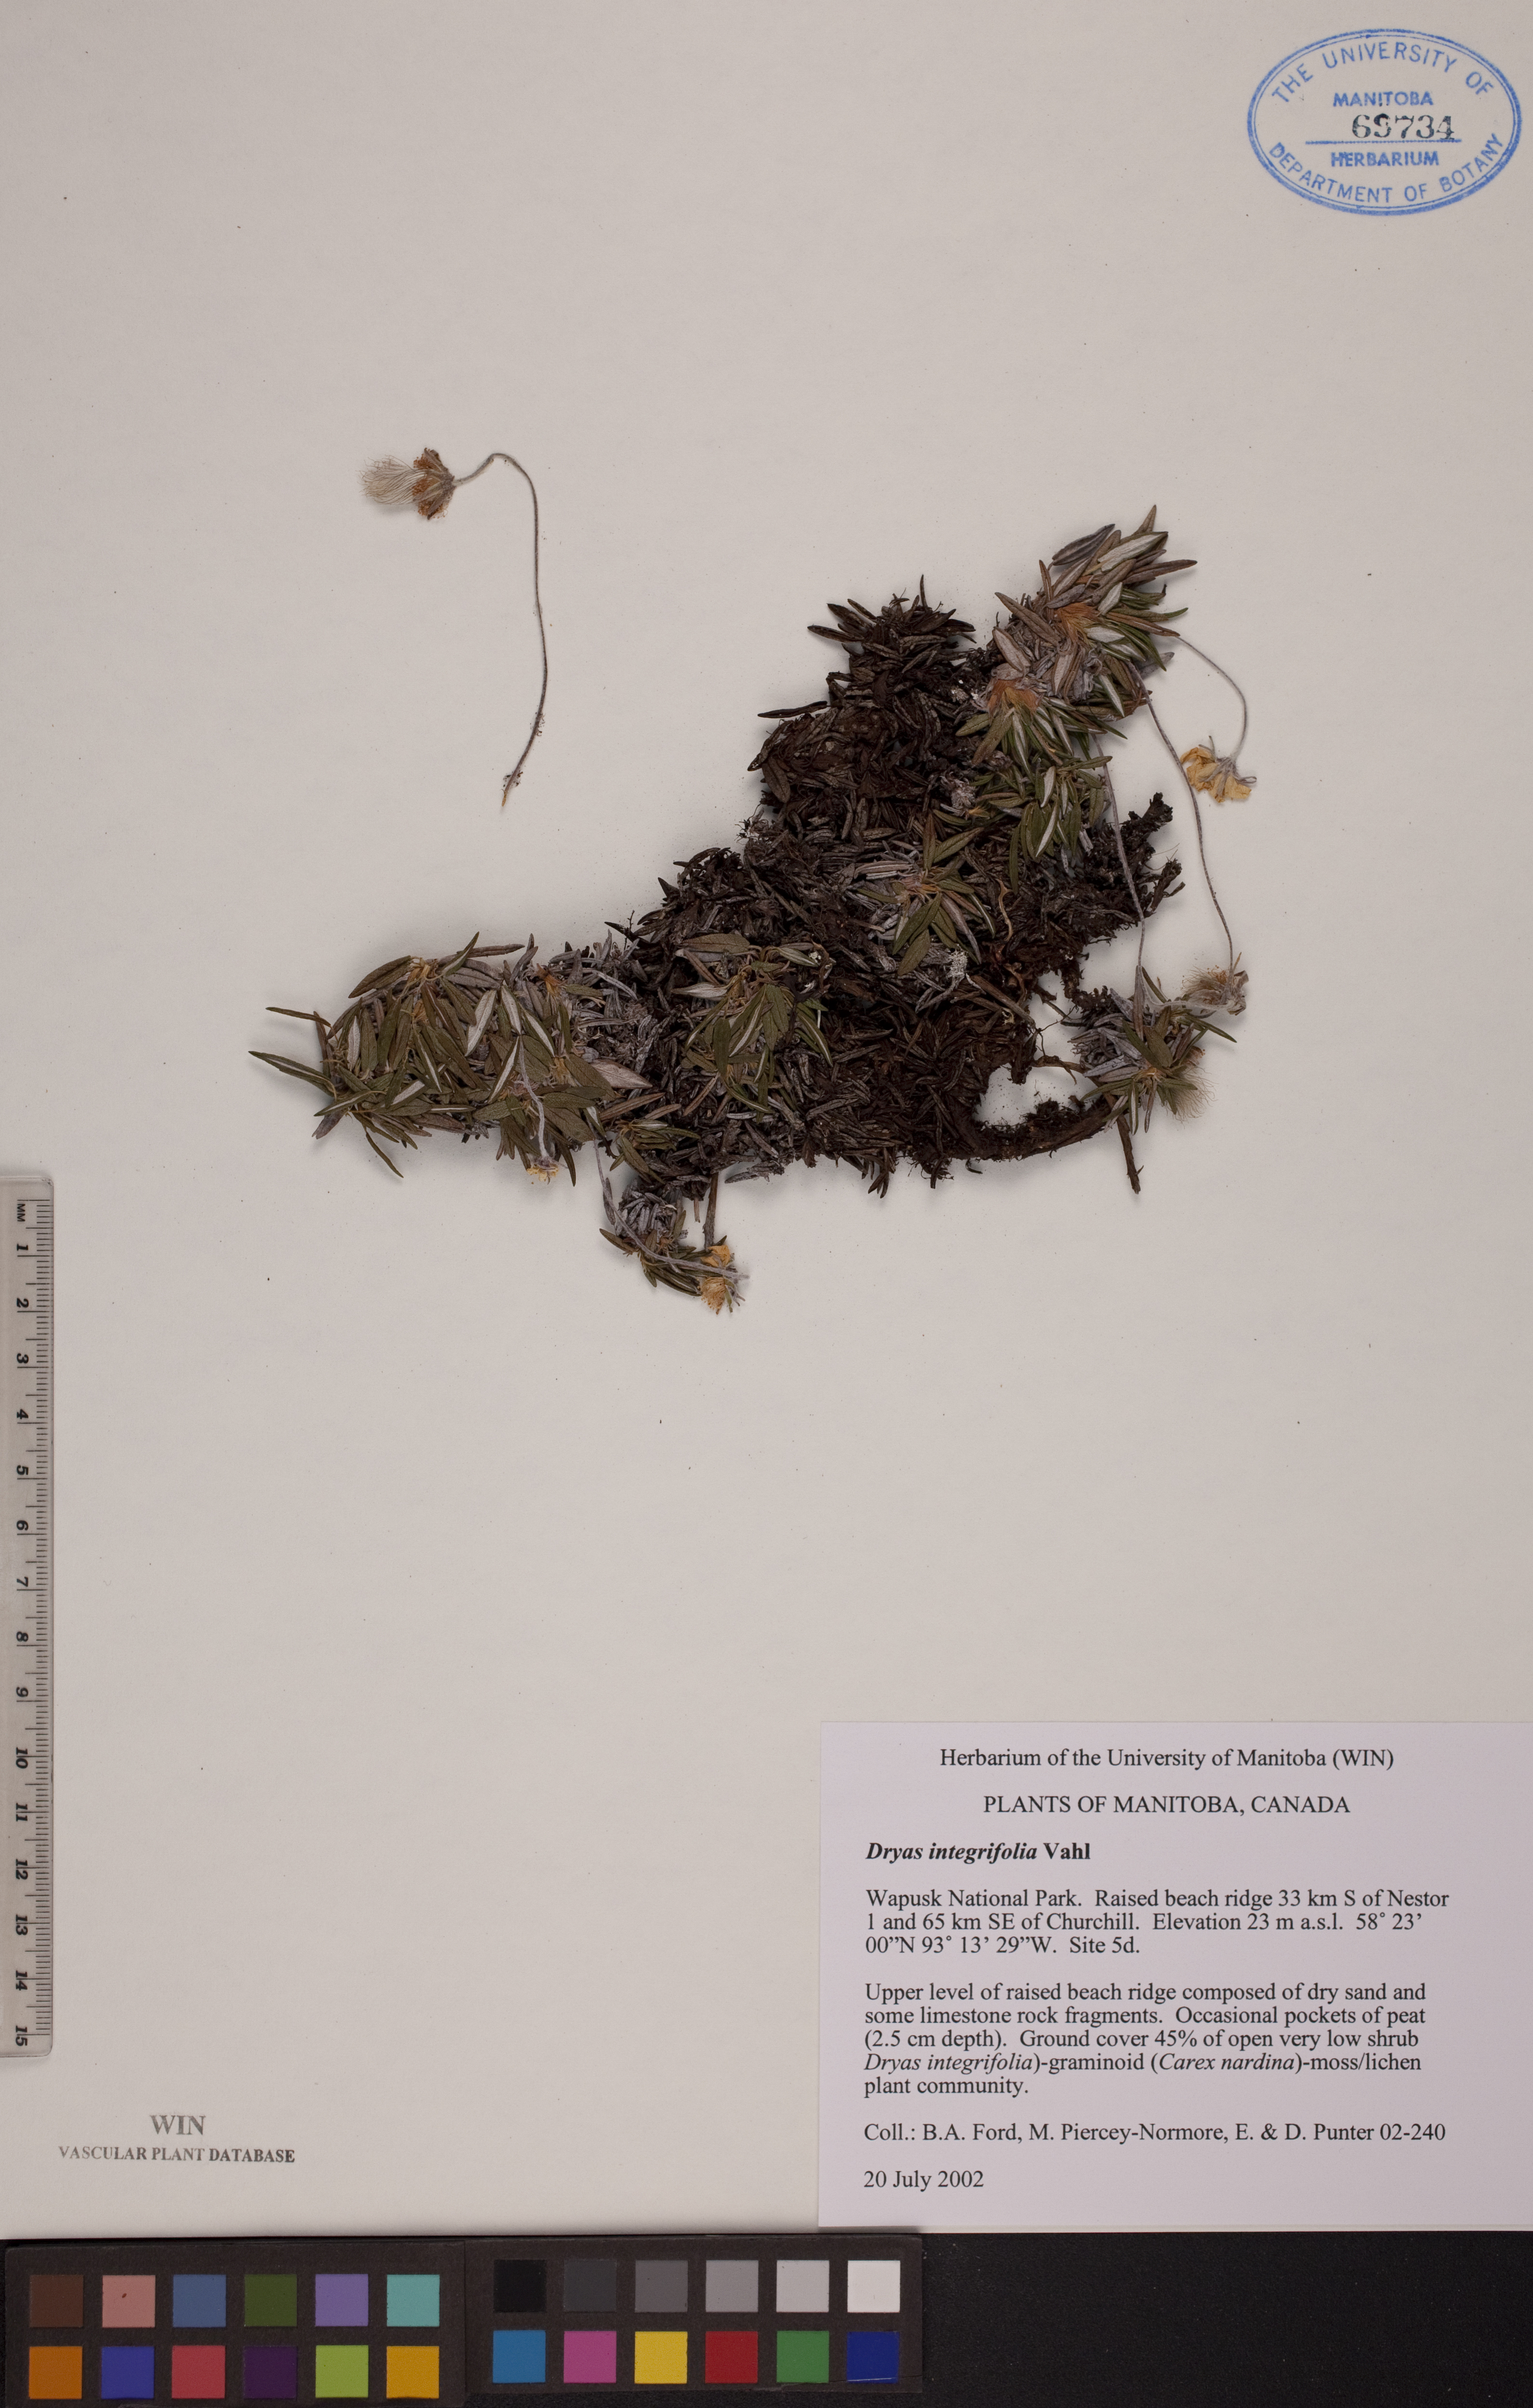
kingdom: Plantae
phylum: Tracheophyta
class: Magnoliopsida
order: Rosales
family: Rosaceae
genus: Dryas
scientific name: Dryas integrifolia
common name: Entire-leaved mountain avens
